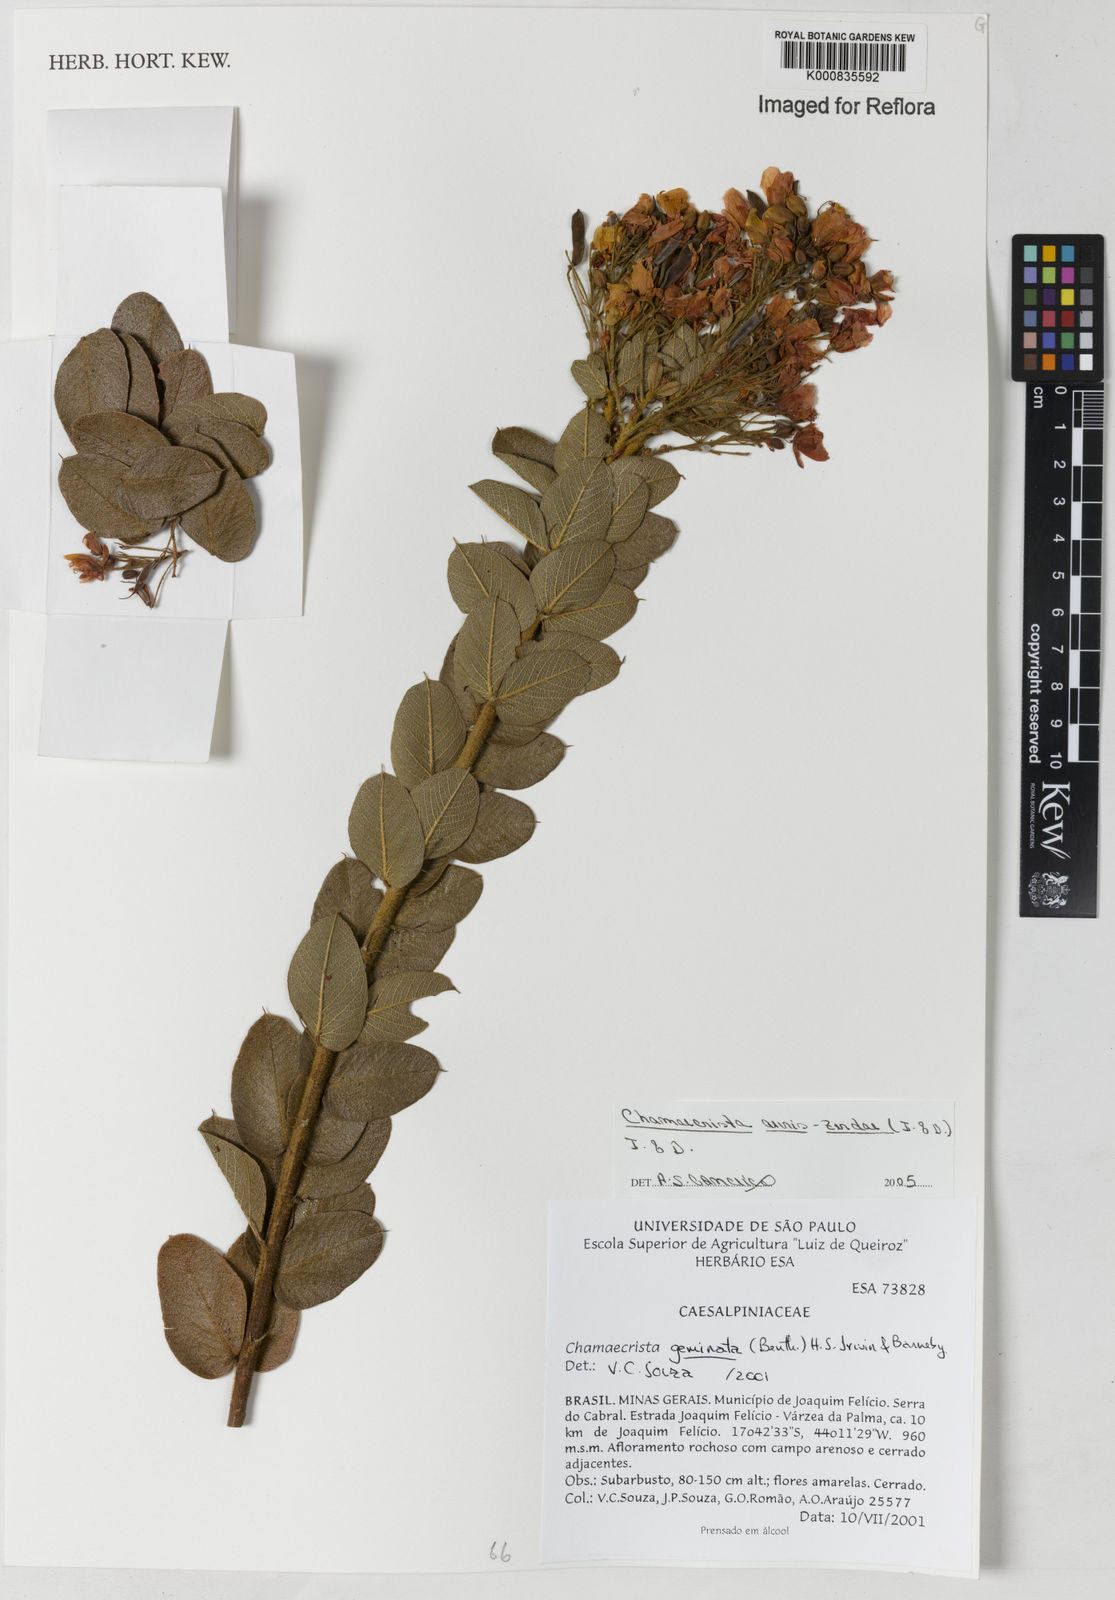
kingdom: Plantae
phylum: Tracheophyta
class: Magnoliopsida
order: Fabales
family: Fabaceae
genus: Chamaecrista
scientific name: Chamaecrista auris-zerdae
